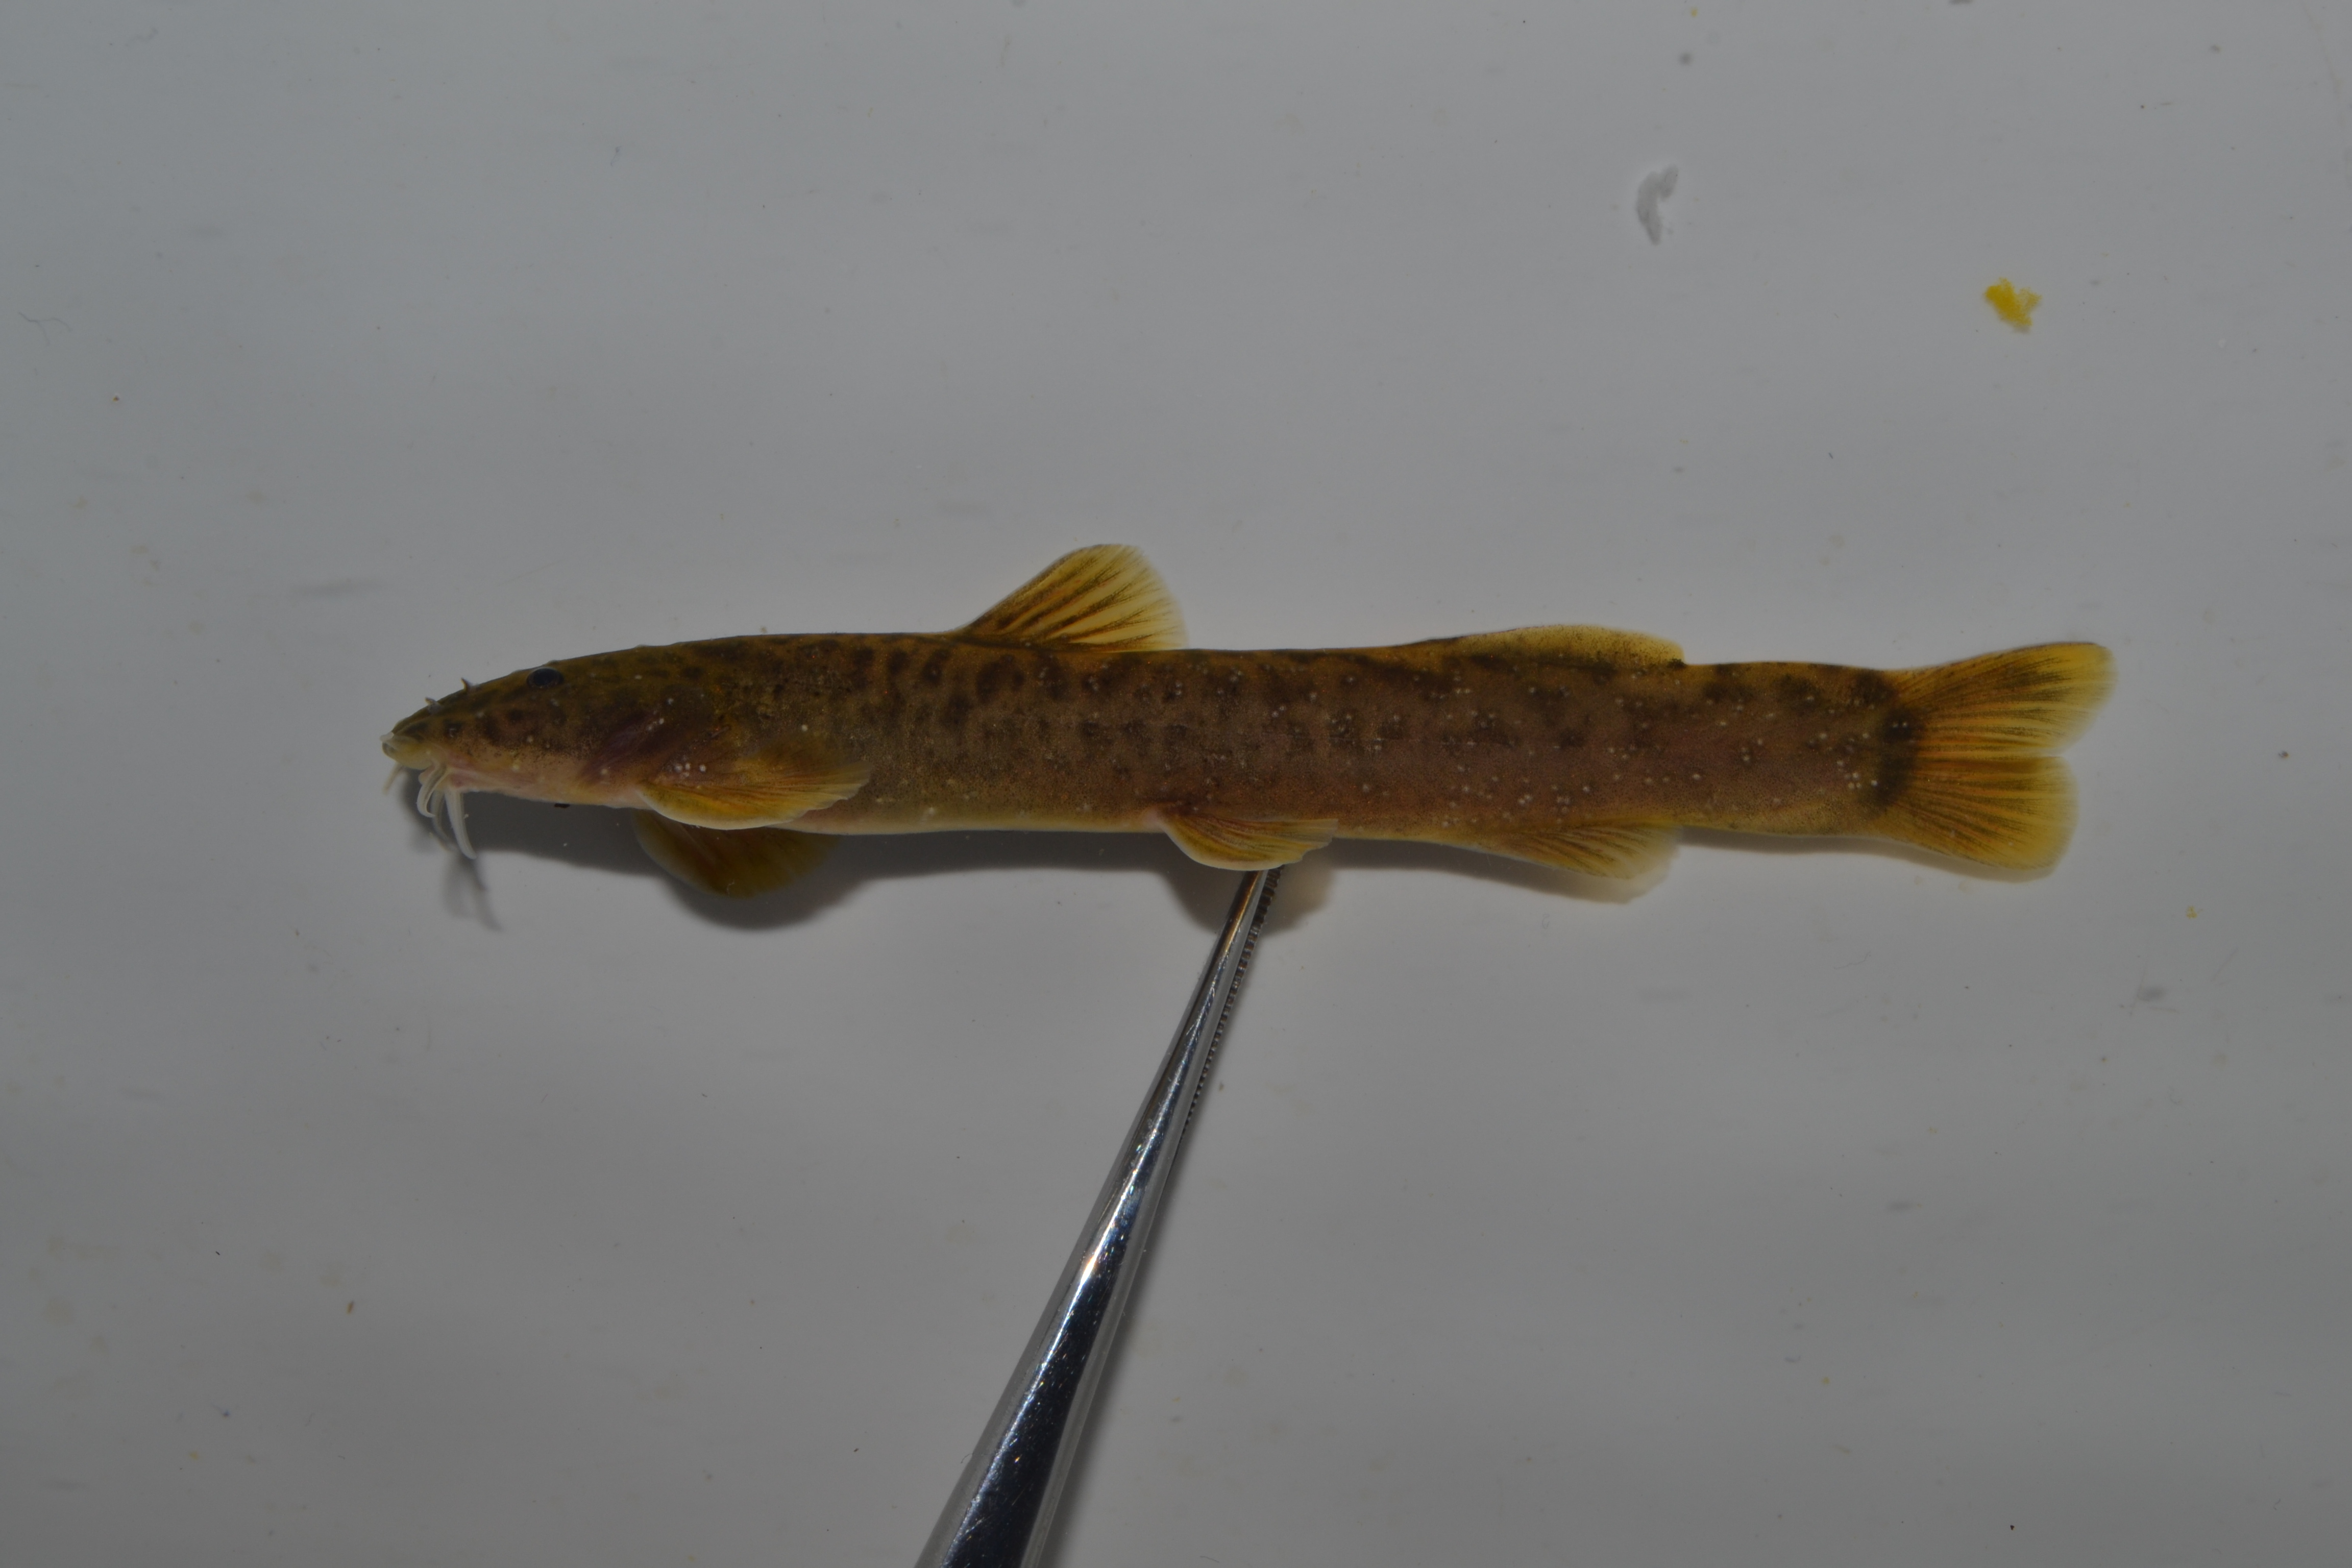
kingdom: Animalia
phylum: Chordata
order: Siluriformes
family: Amphiliidae
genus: Amphilius
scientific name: Amphilius uranoscopus
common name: Stargazer mountain catfish
